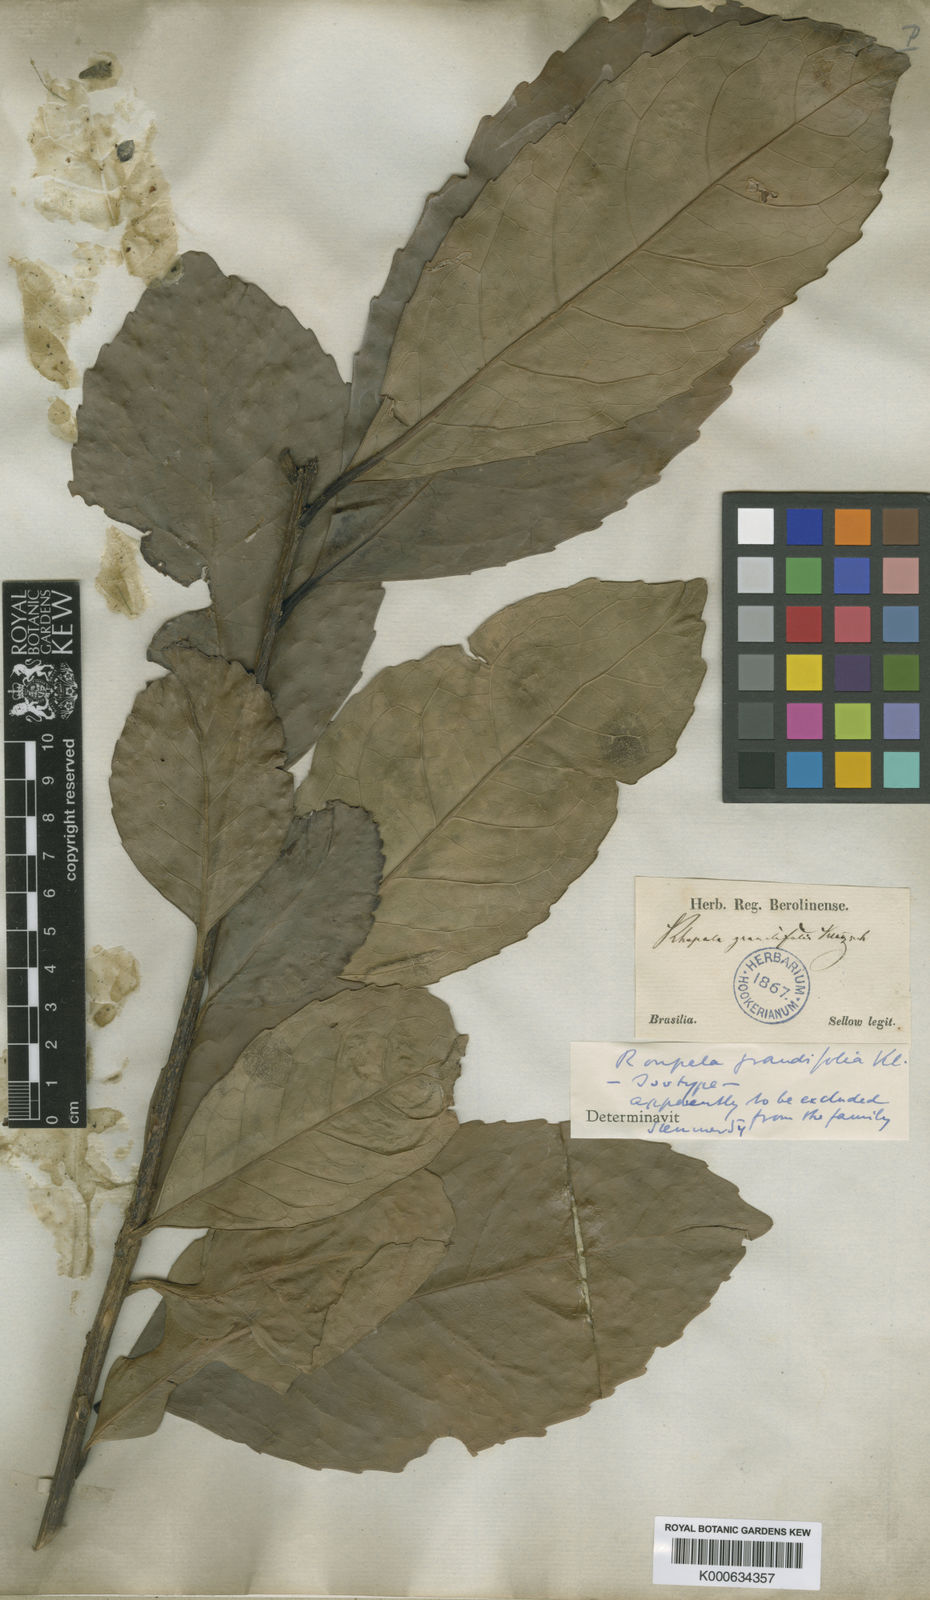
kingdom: Plantae
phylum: Tracheophyta
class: Magnoliopsida
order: Proteales
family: Proteaceae
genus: Roupala
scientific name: Roupala montana
